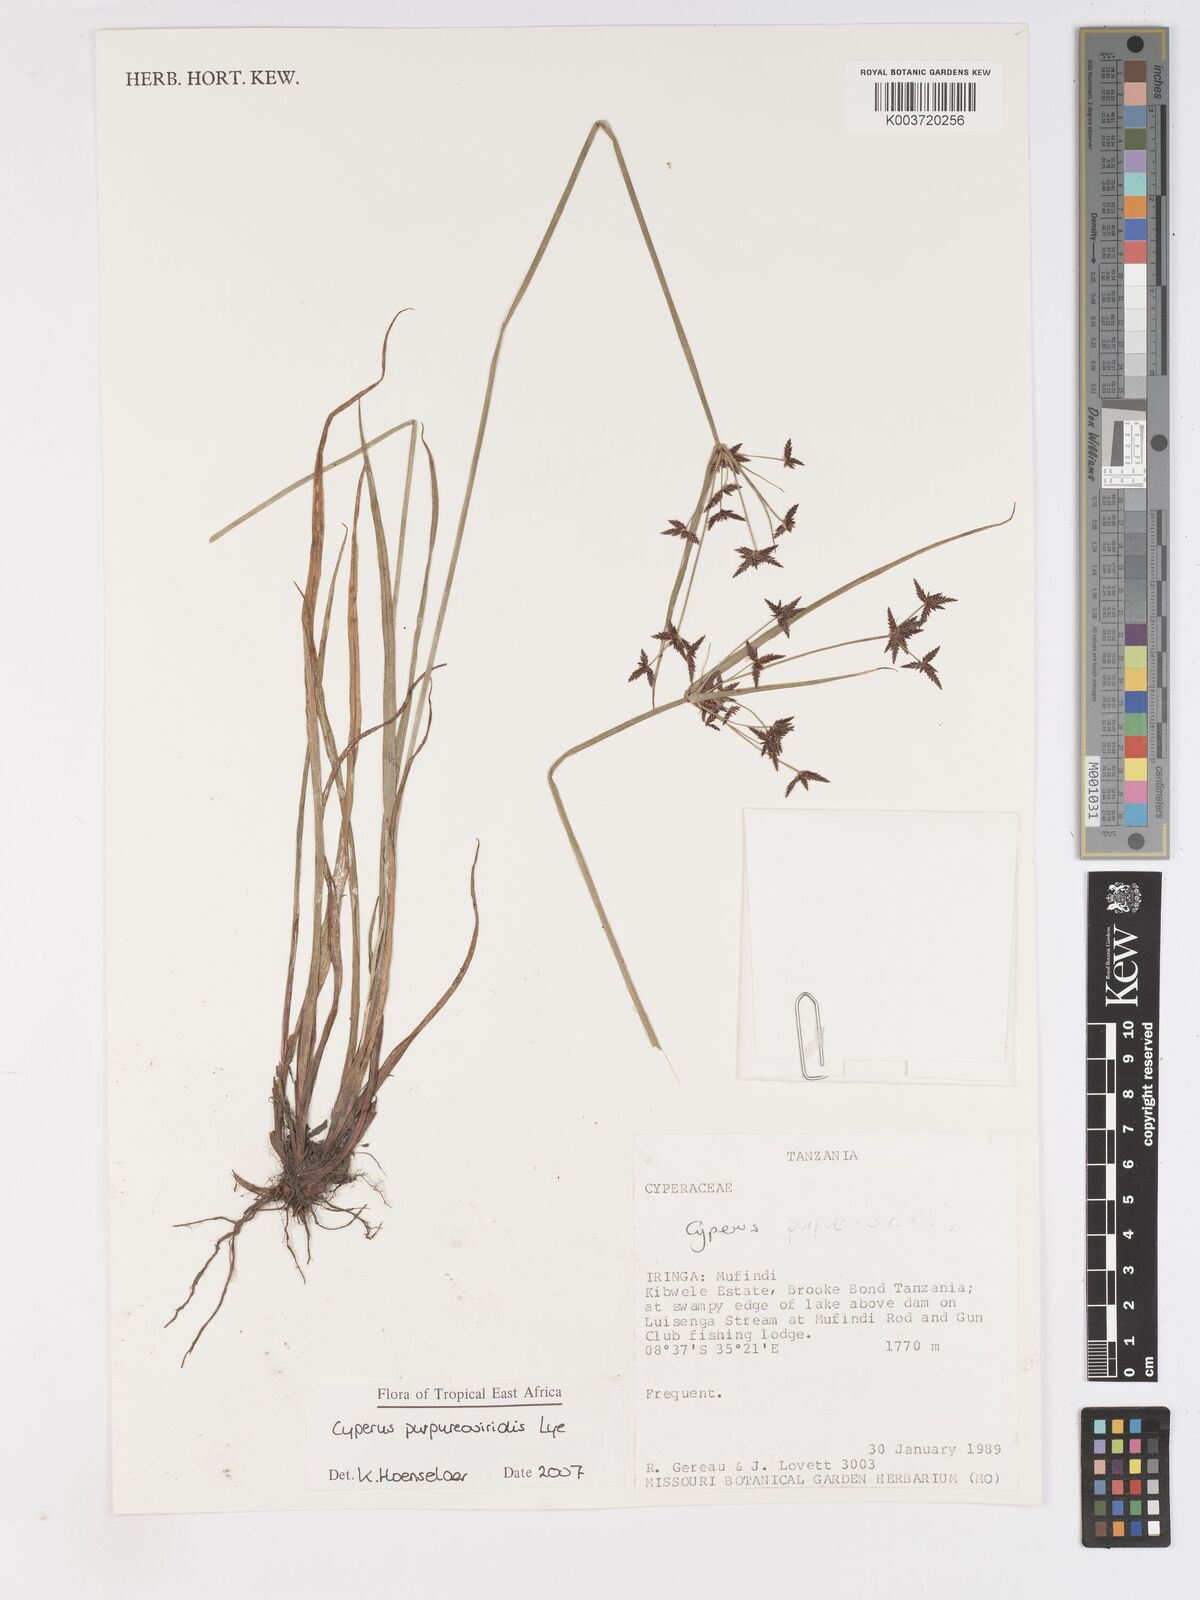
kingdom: Plantae
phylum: Tracheophyta
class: Liliopsida
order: Poales
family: Cyperaceae
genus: Cyperus
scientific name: Cyperus purpureoviridis
